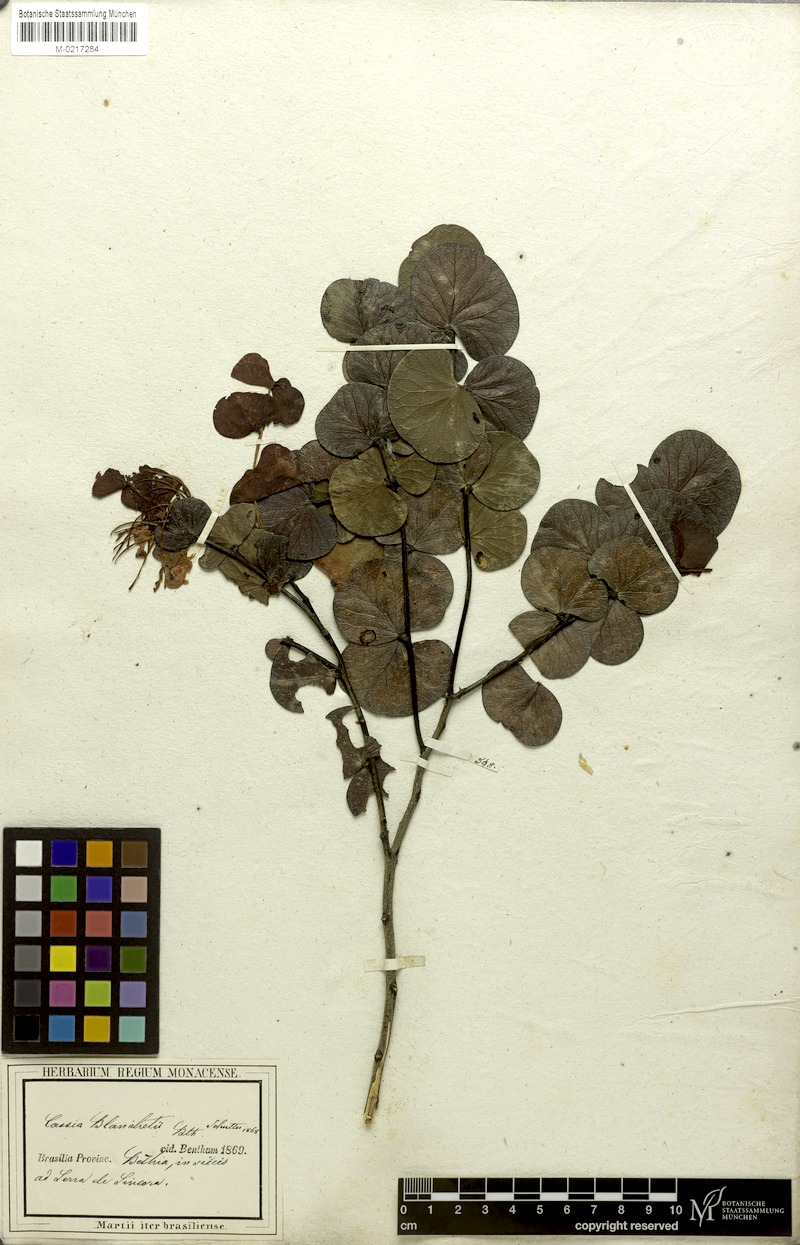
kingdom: Plantae
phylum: Tracheophyta
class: Magnoliopsida
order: Fabales
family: Fabaceae
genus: Chamaecrista
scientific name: Chamaecrista blanchetii
